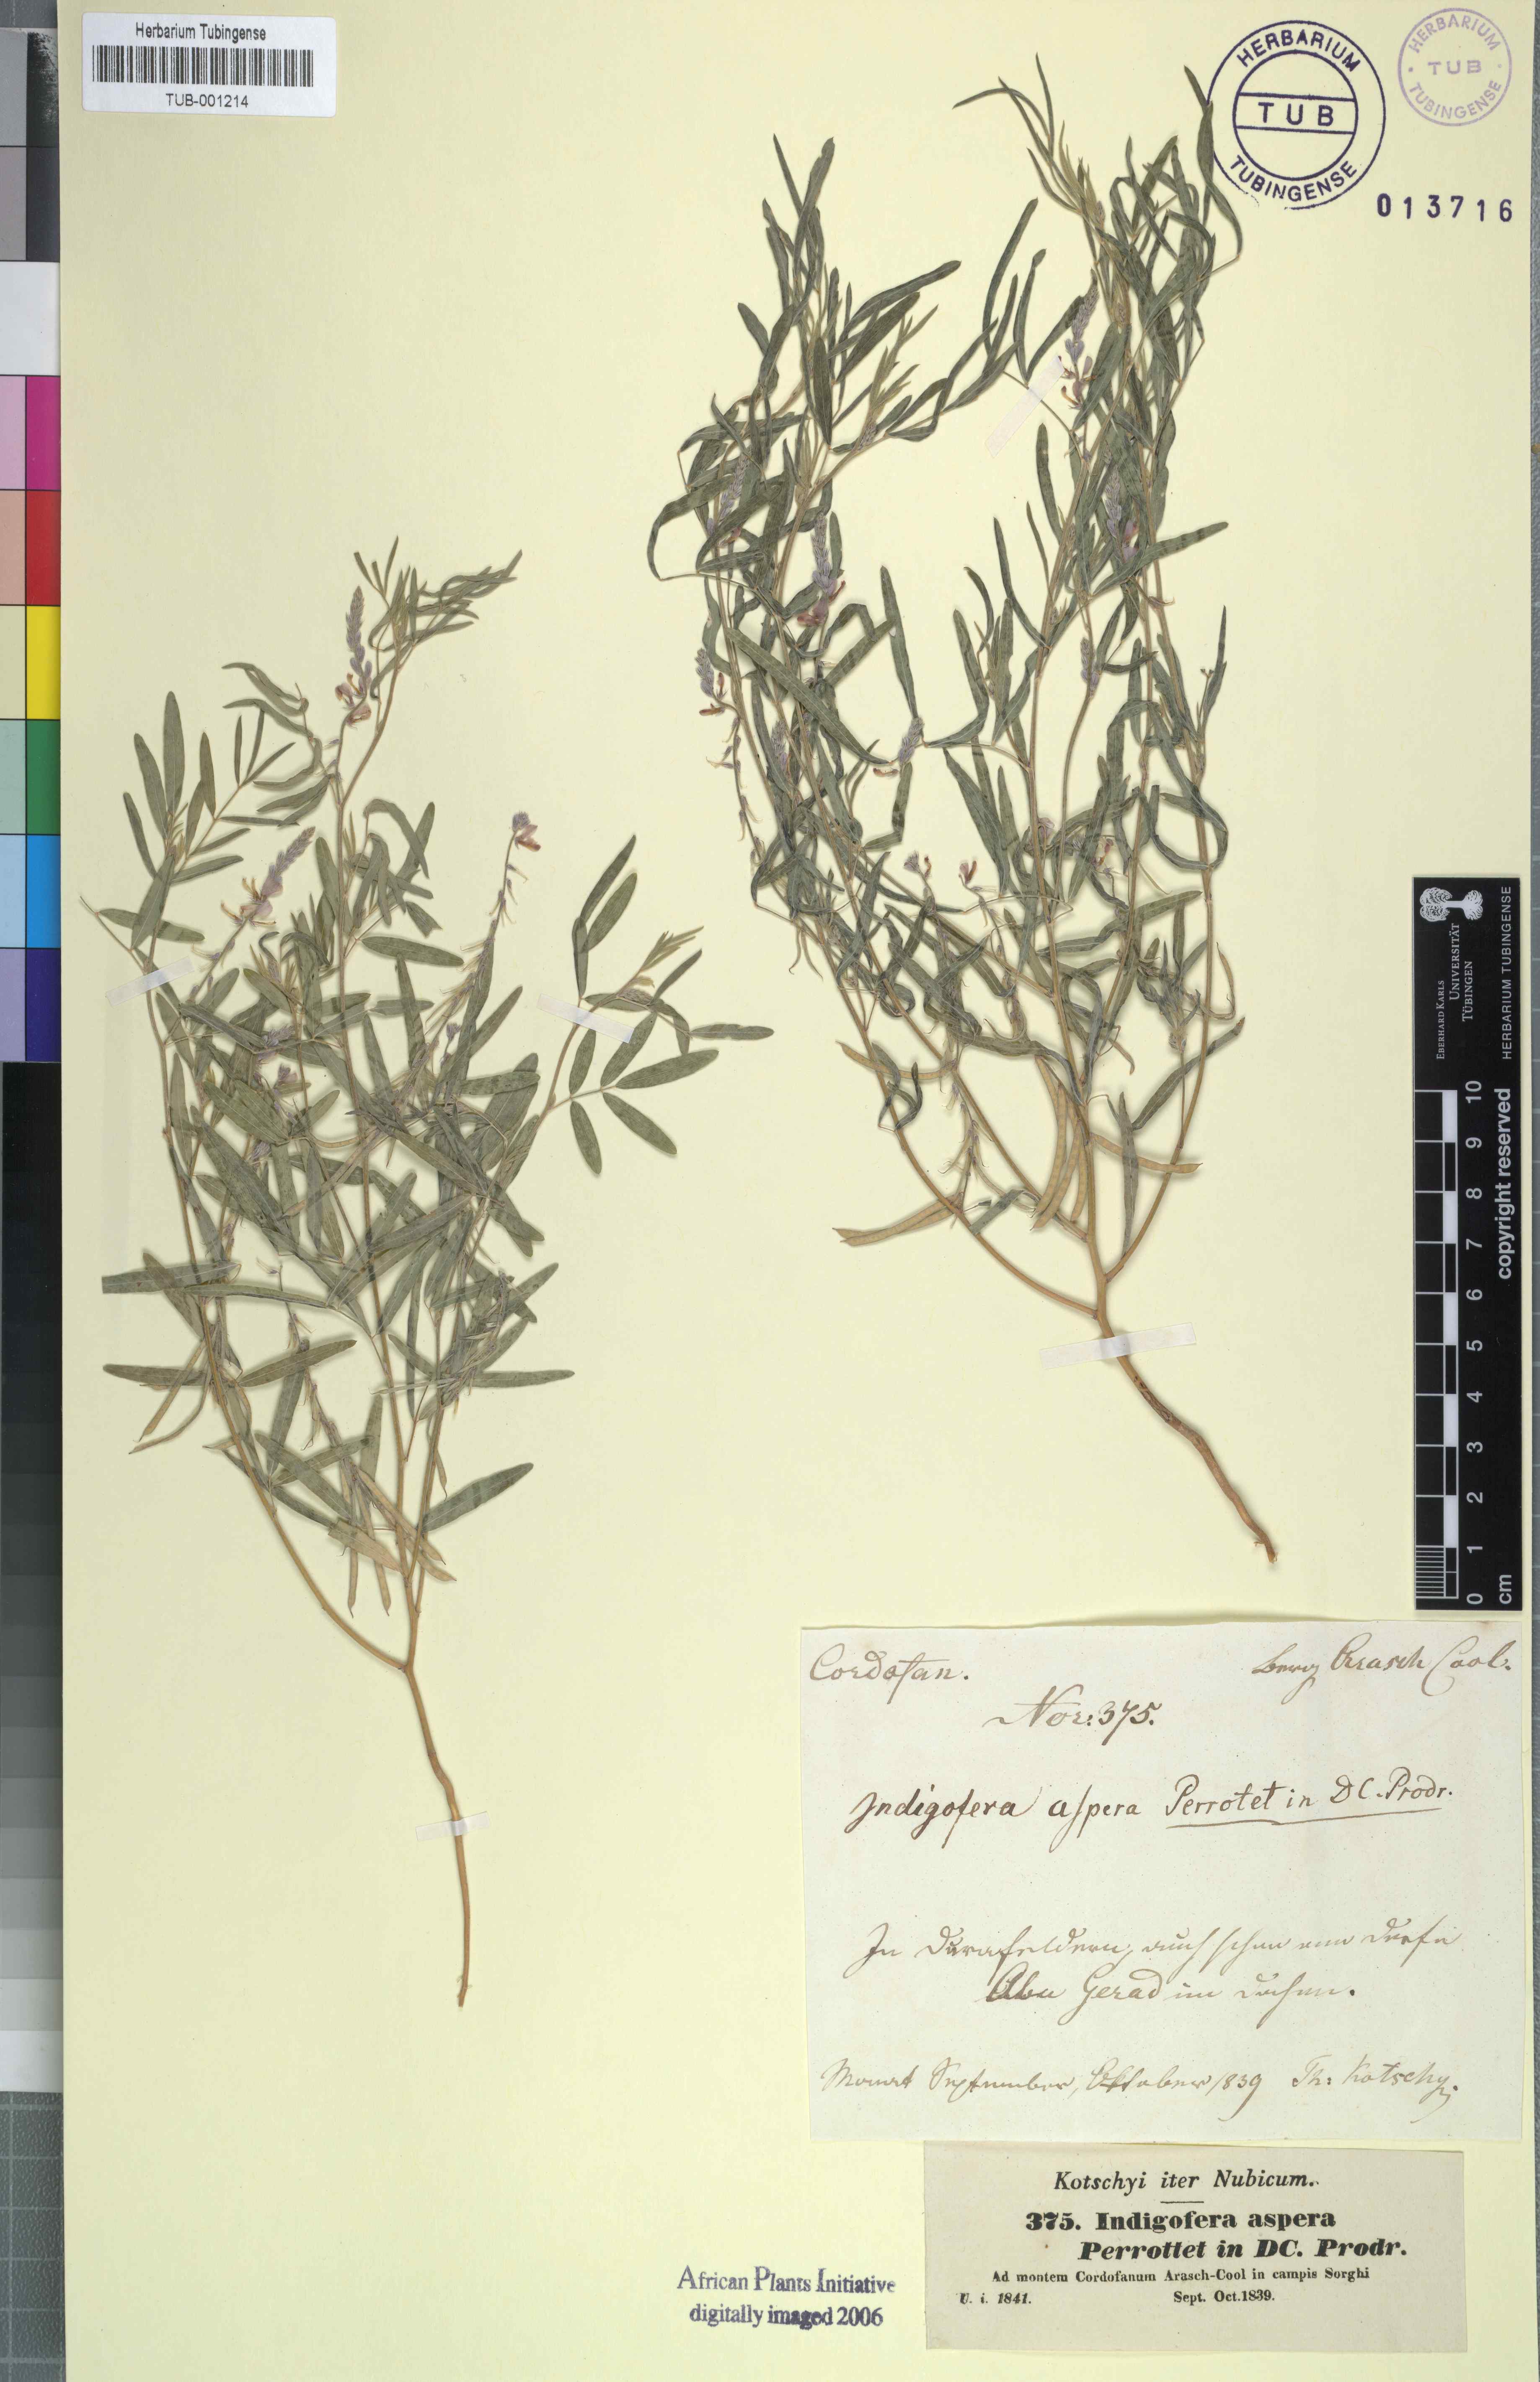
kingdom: Plantae
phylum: Tracheophyta
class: Magnoliopsida
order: Fabales
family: Fabaceae
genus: Indigofera
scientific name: Indigofera aspera
